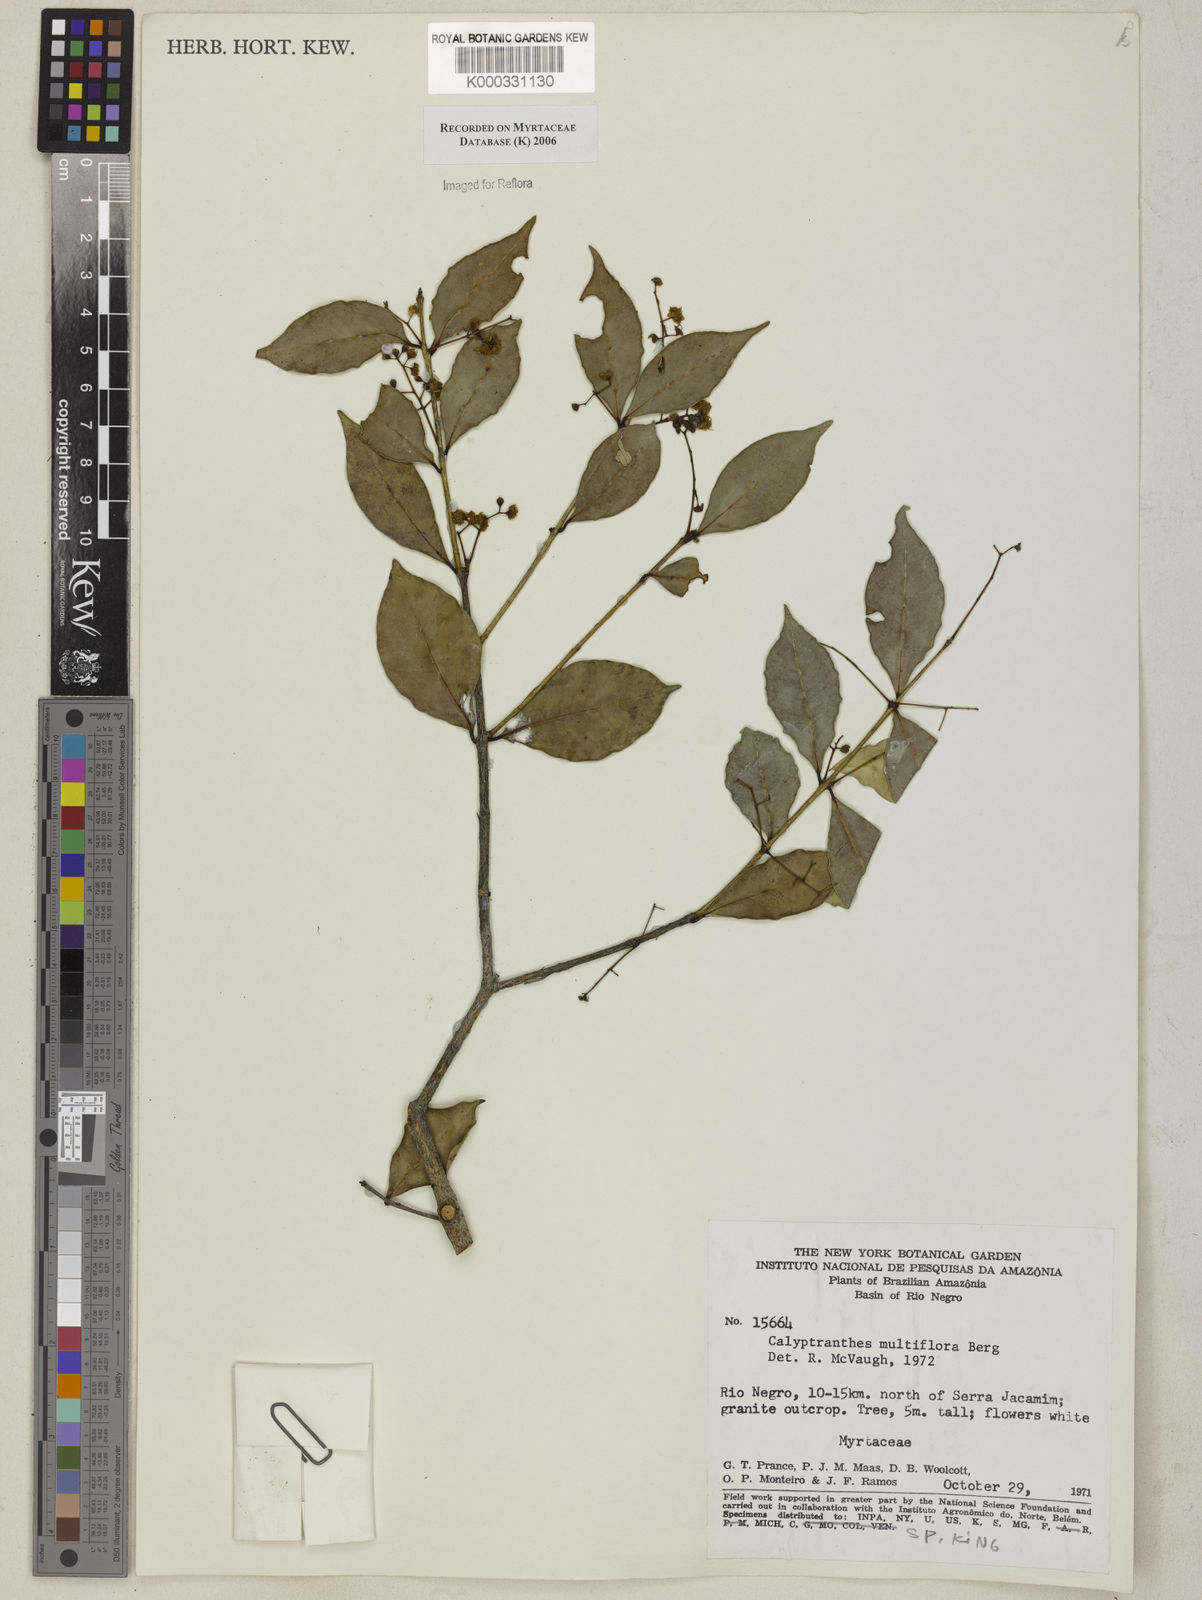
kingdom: Plantae
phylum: Tracheophyta
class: Magnoliopsida
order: Myrtales
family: Myrtaceae
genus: Myrcia
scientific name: Myrcia aulomyrcioides
